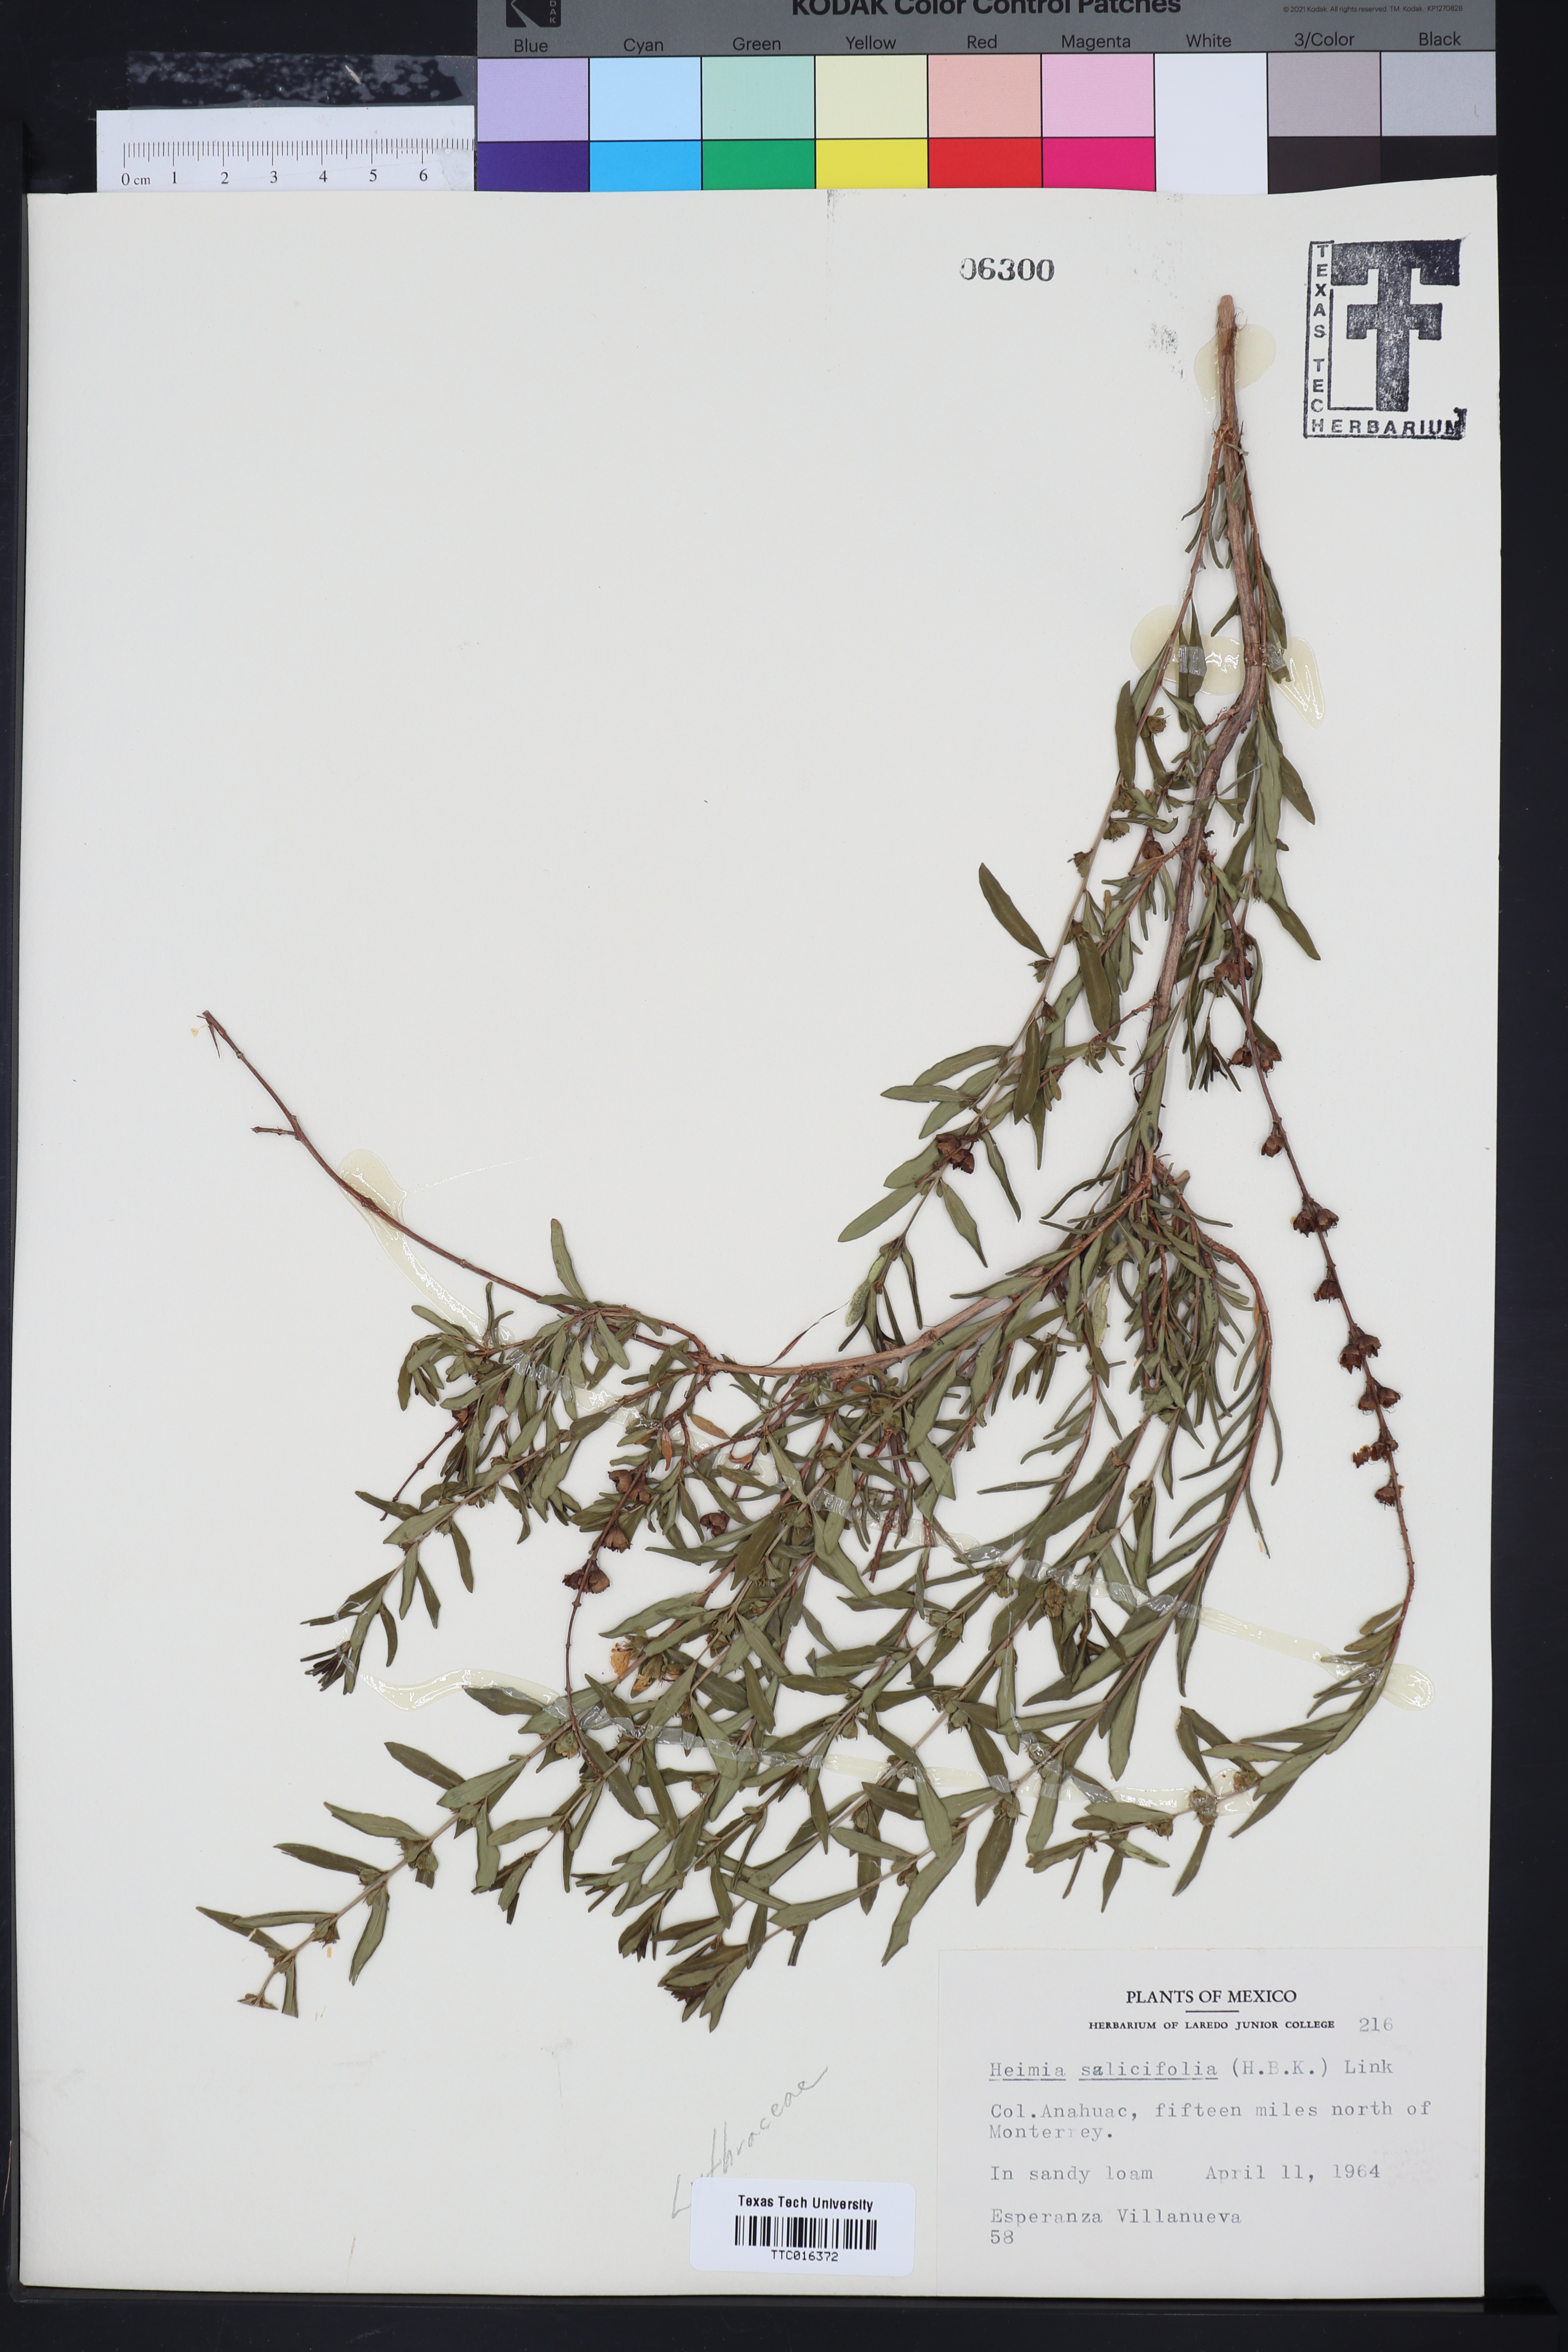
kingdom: Plantae
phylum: Tracheophyta
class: Magnoliopsida
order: Myrtales
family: Lythraceae
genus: Heimia
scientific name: Heimia salicifolia
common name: Willow-leaf heimia
